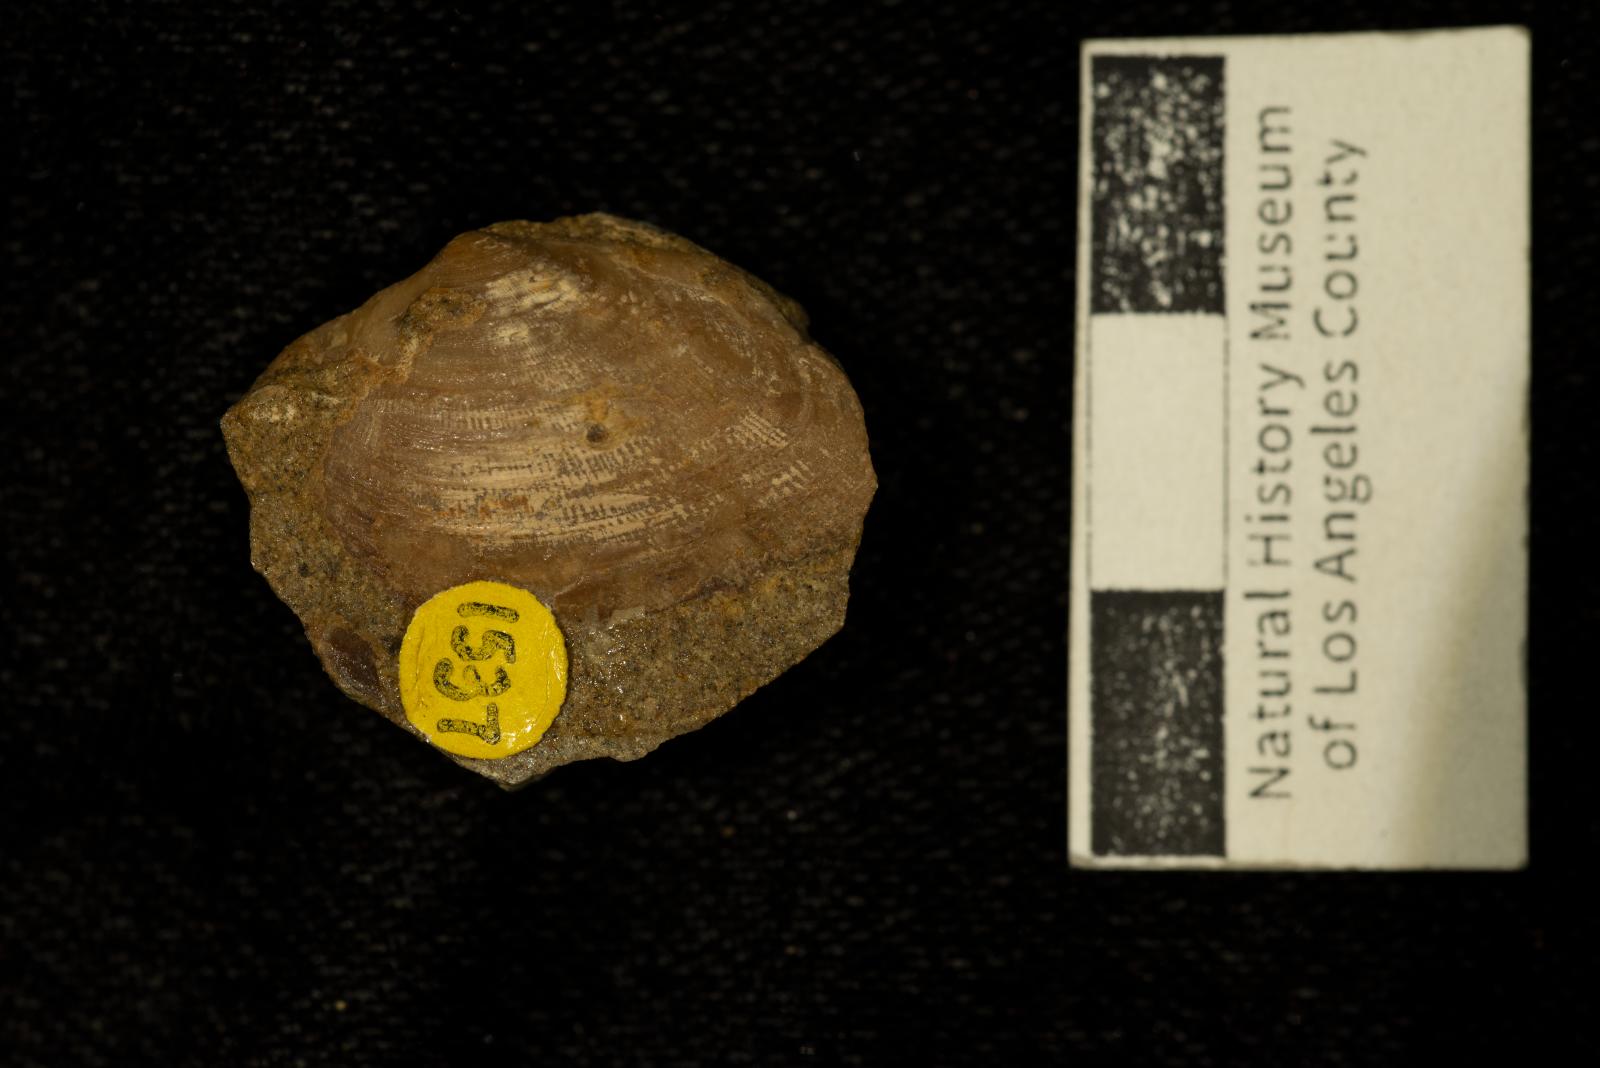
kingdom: Animalia
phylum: Mollusca
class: Bivalvia
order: Carditida
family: Crassatellidae
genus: Crassatella
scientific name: Crassatella saulae
